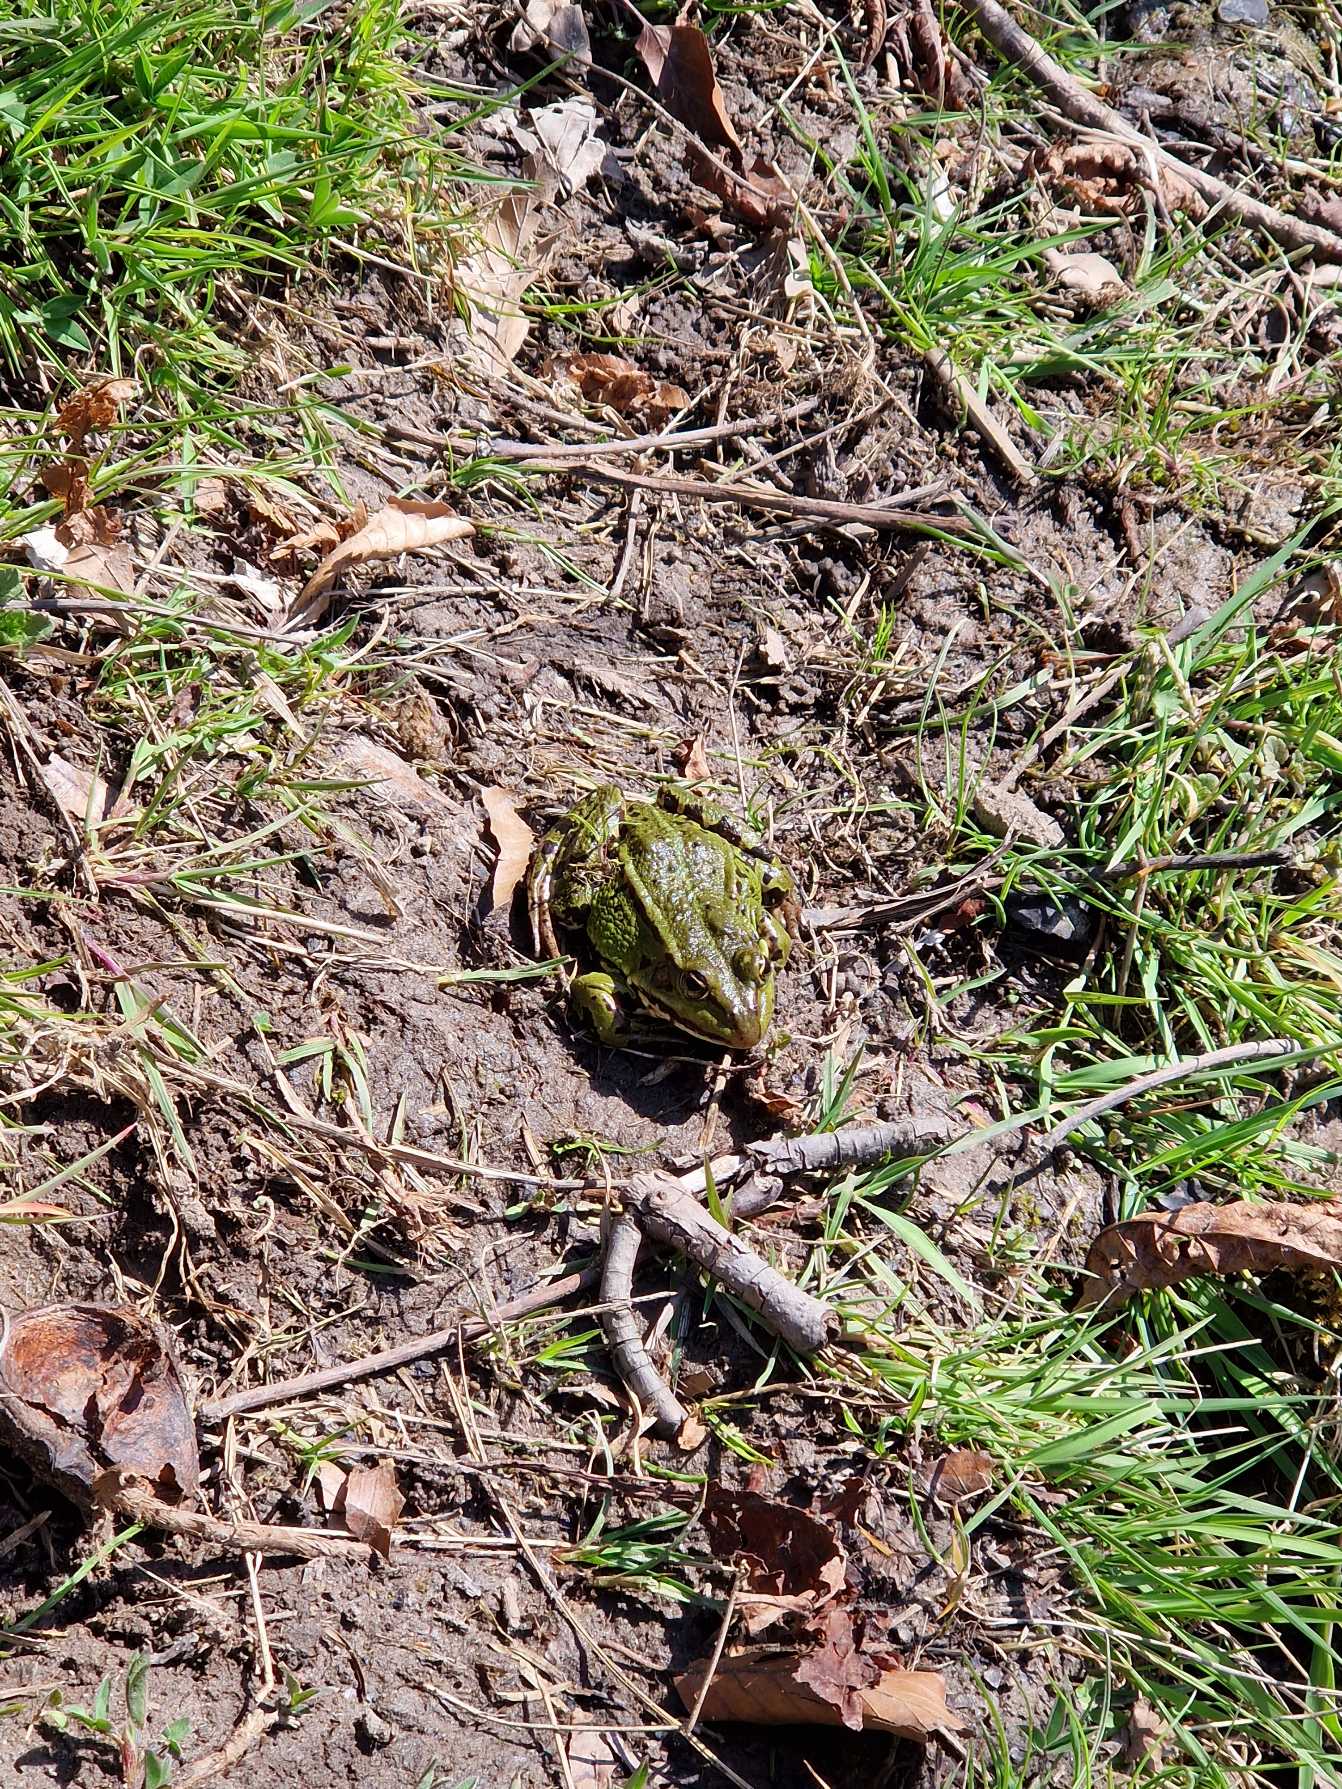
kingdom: Animalia
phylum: Chordata
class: Amphibia
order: Anura
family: Ranidae
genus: Pelophylax
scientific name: Pelophylax lessonae
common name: Grøn frø
